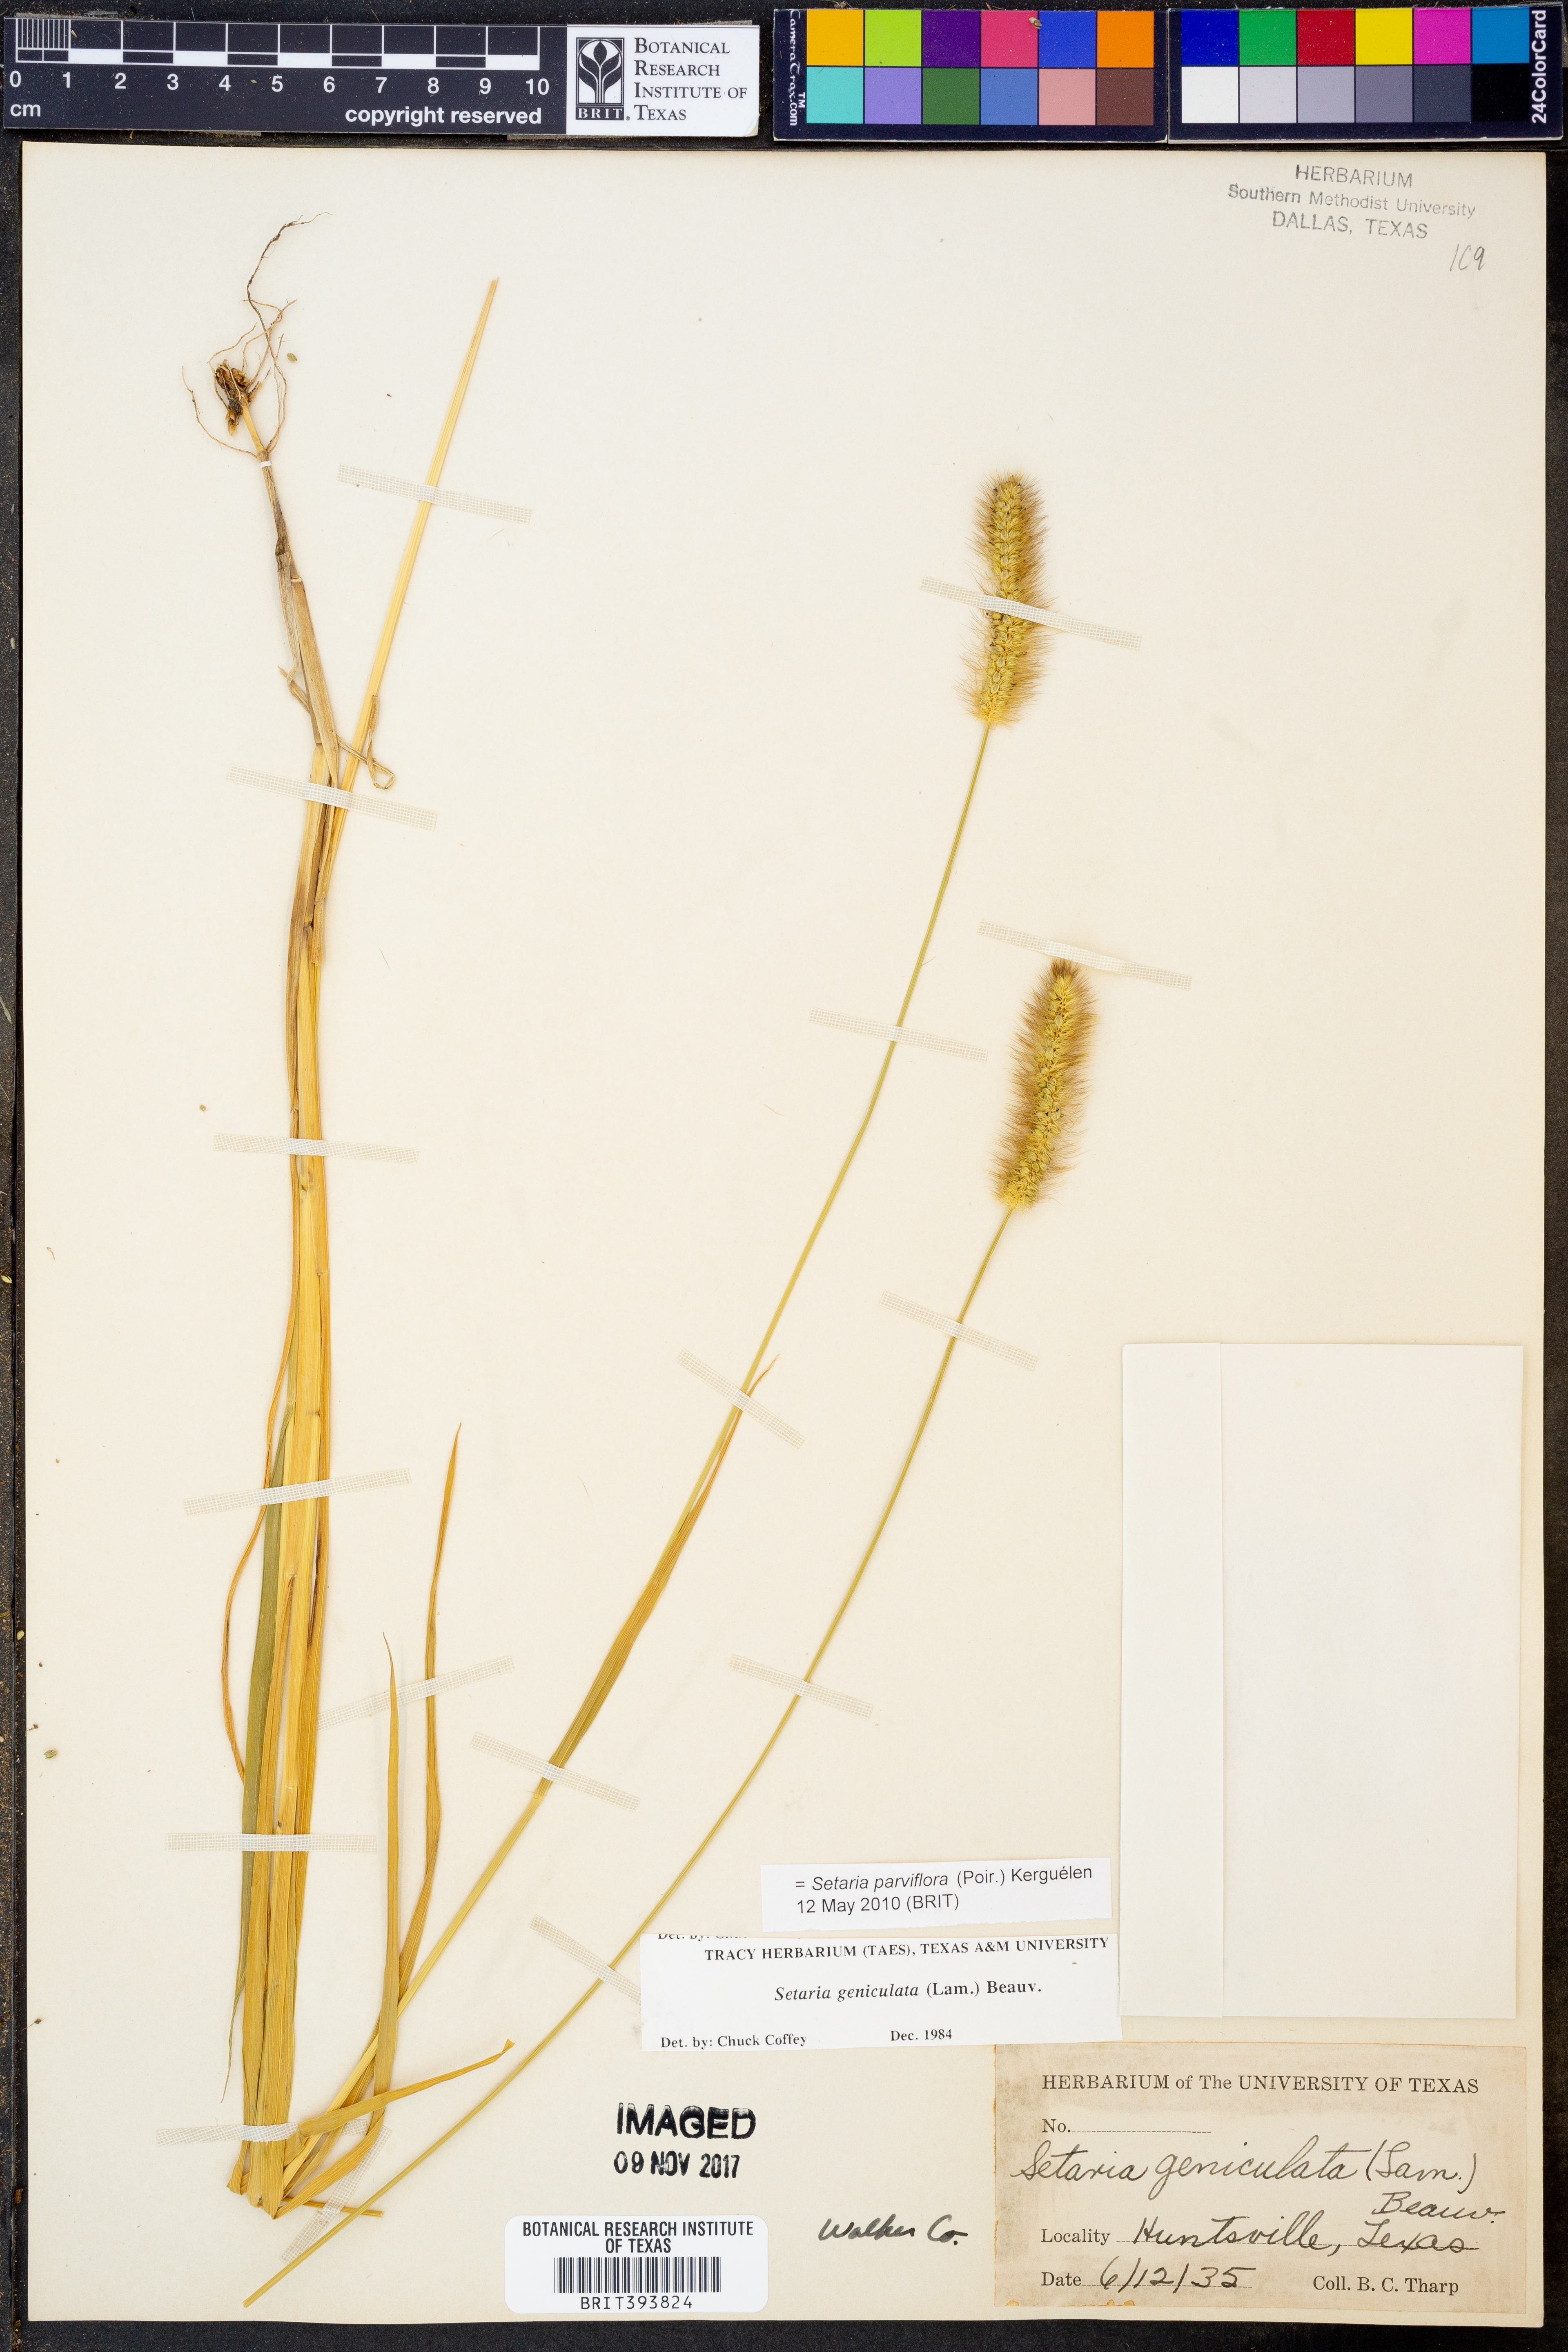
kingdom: Plantae
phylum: Tracheophyta
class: Liliopsida
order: Poales
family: Poaceae
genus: Setaria
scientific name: Setaria parviflora
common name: Knotroot bristle-grass
